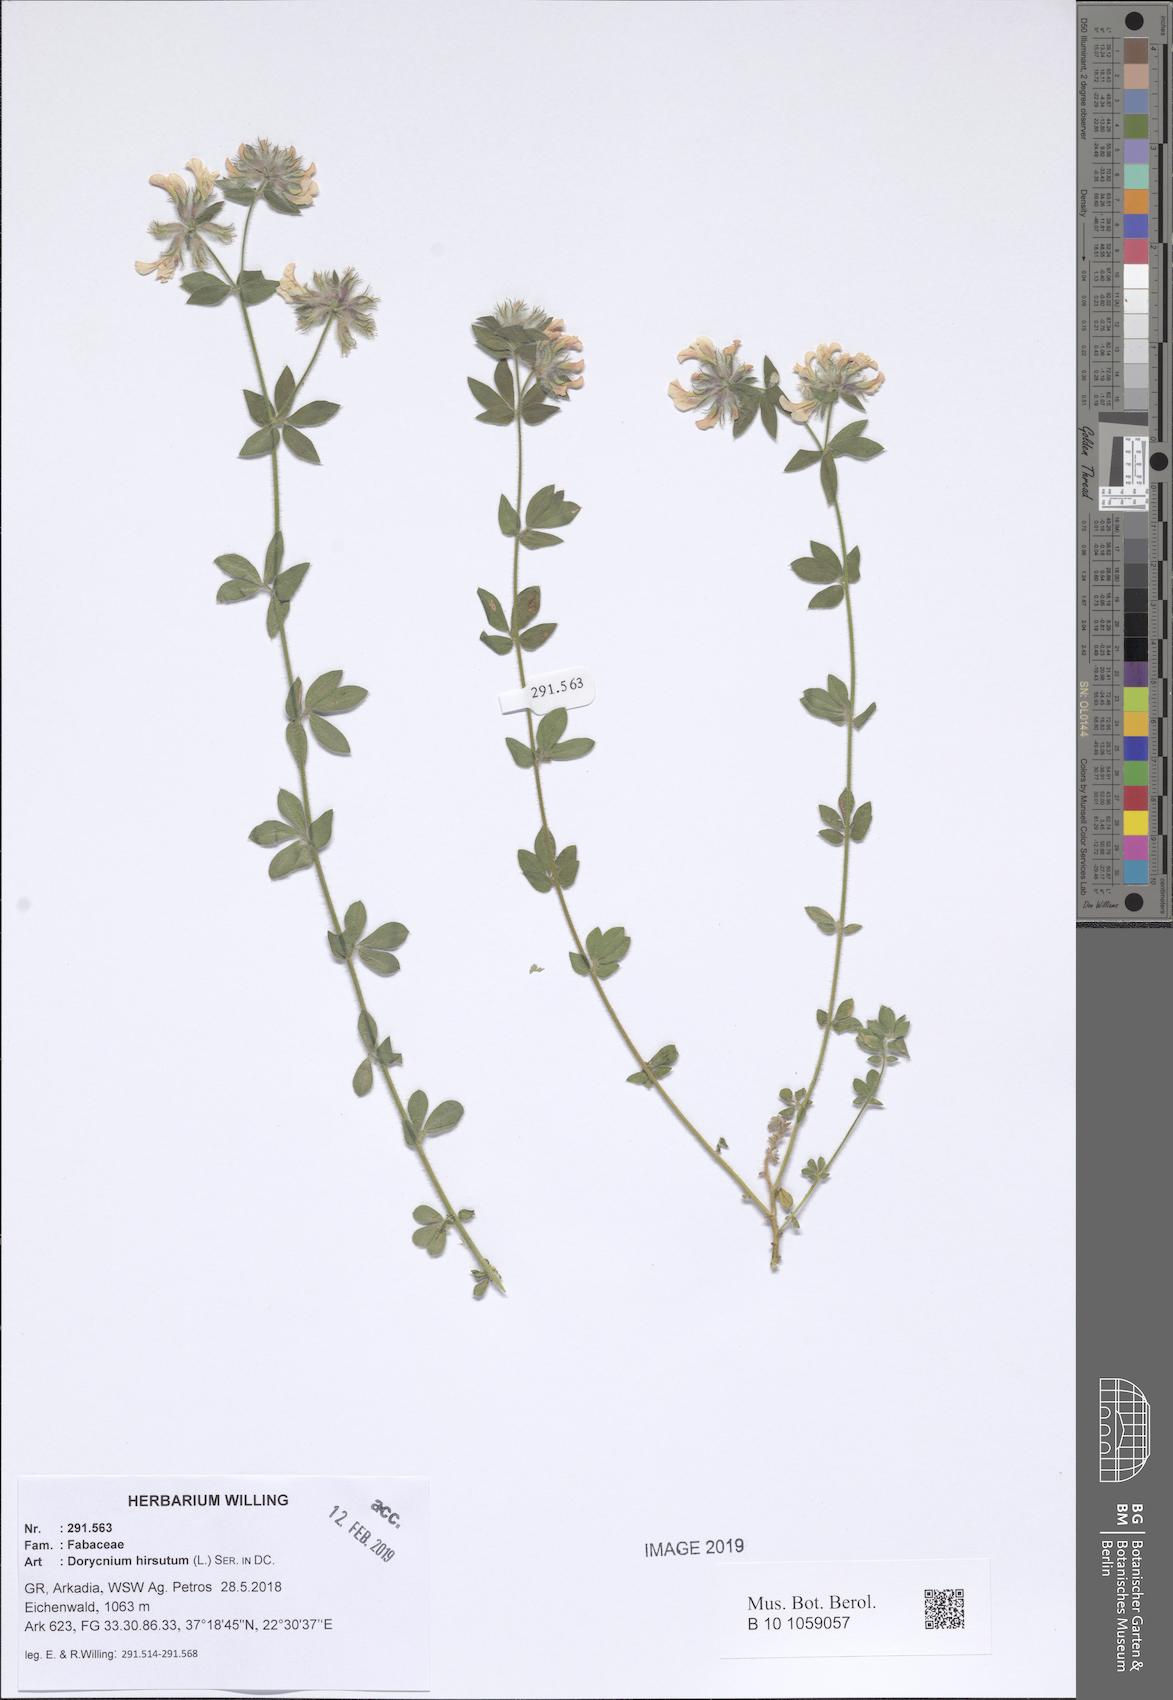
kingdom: Plantae
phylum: Tracheophyta
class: Magnoliopsida
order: Fabales
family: Fabaceae
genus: Lotus
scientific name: Lotus hirsutus
